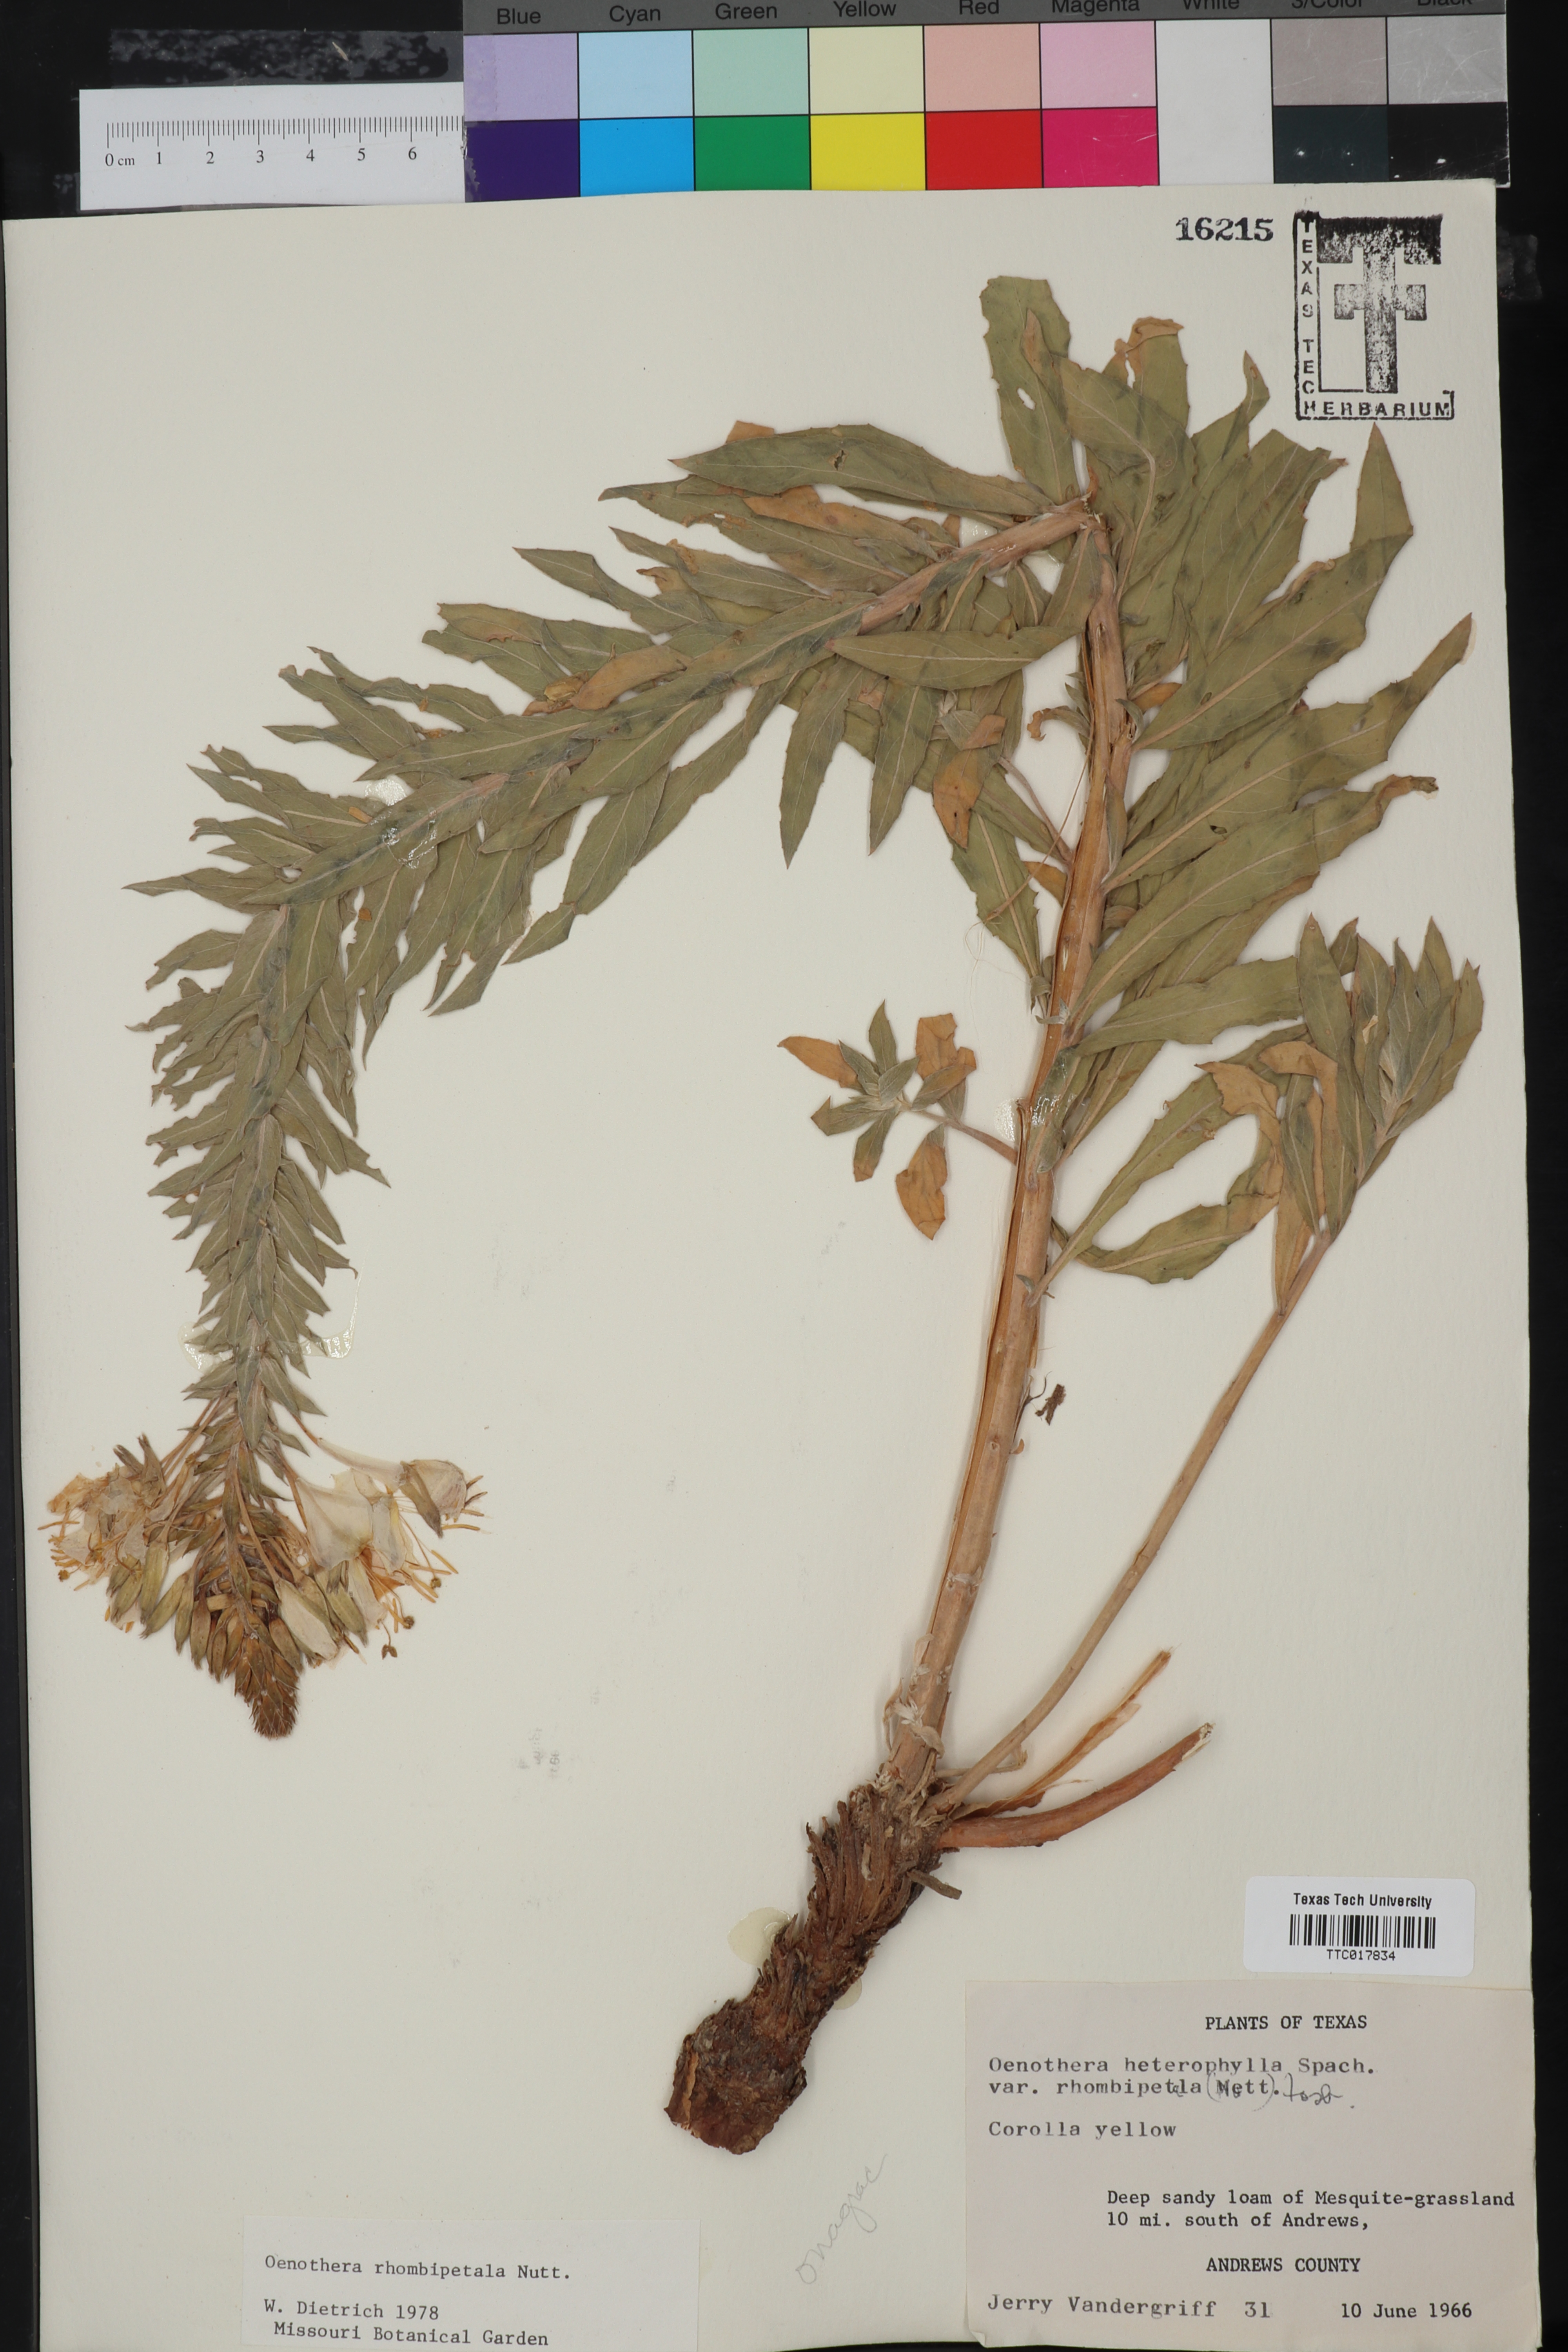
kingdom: Plantae
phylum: Tracheophyta
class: Magnoliopsida
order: Myrtales
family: Onagraceae
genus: Oenothera
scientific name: Oenothera rhombipetala
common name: Four-points evening-primrose
